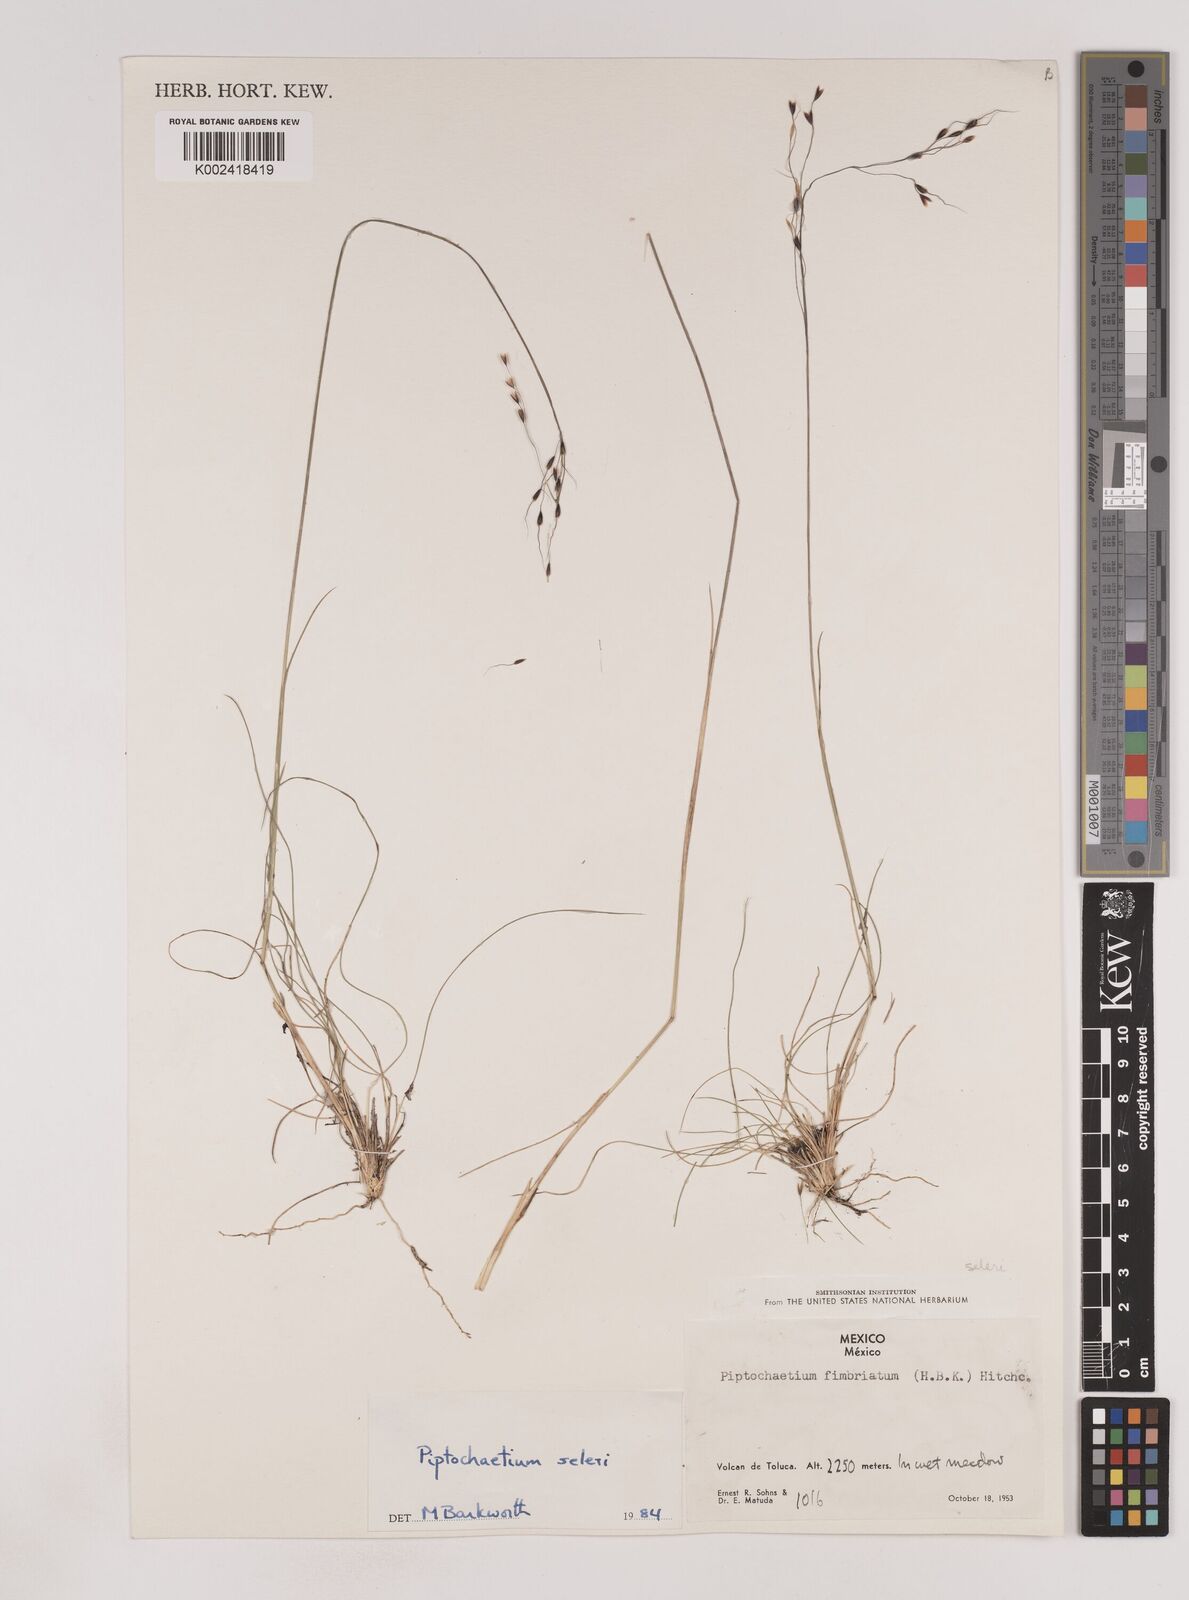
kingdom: Plantae
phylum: Tracheophyta
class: Liliopsida
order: Poales
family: Poaceae
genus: Piptochaetium
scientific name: Piptochaetium seleri
